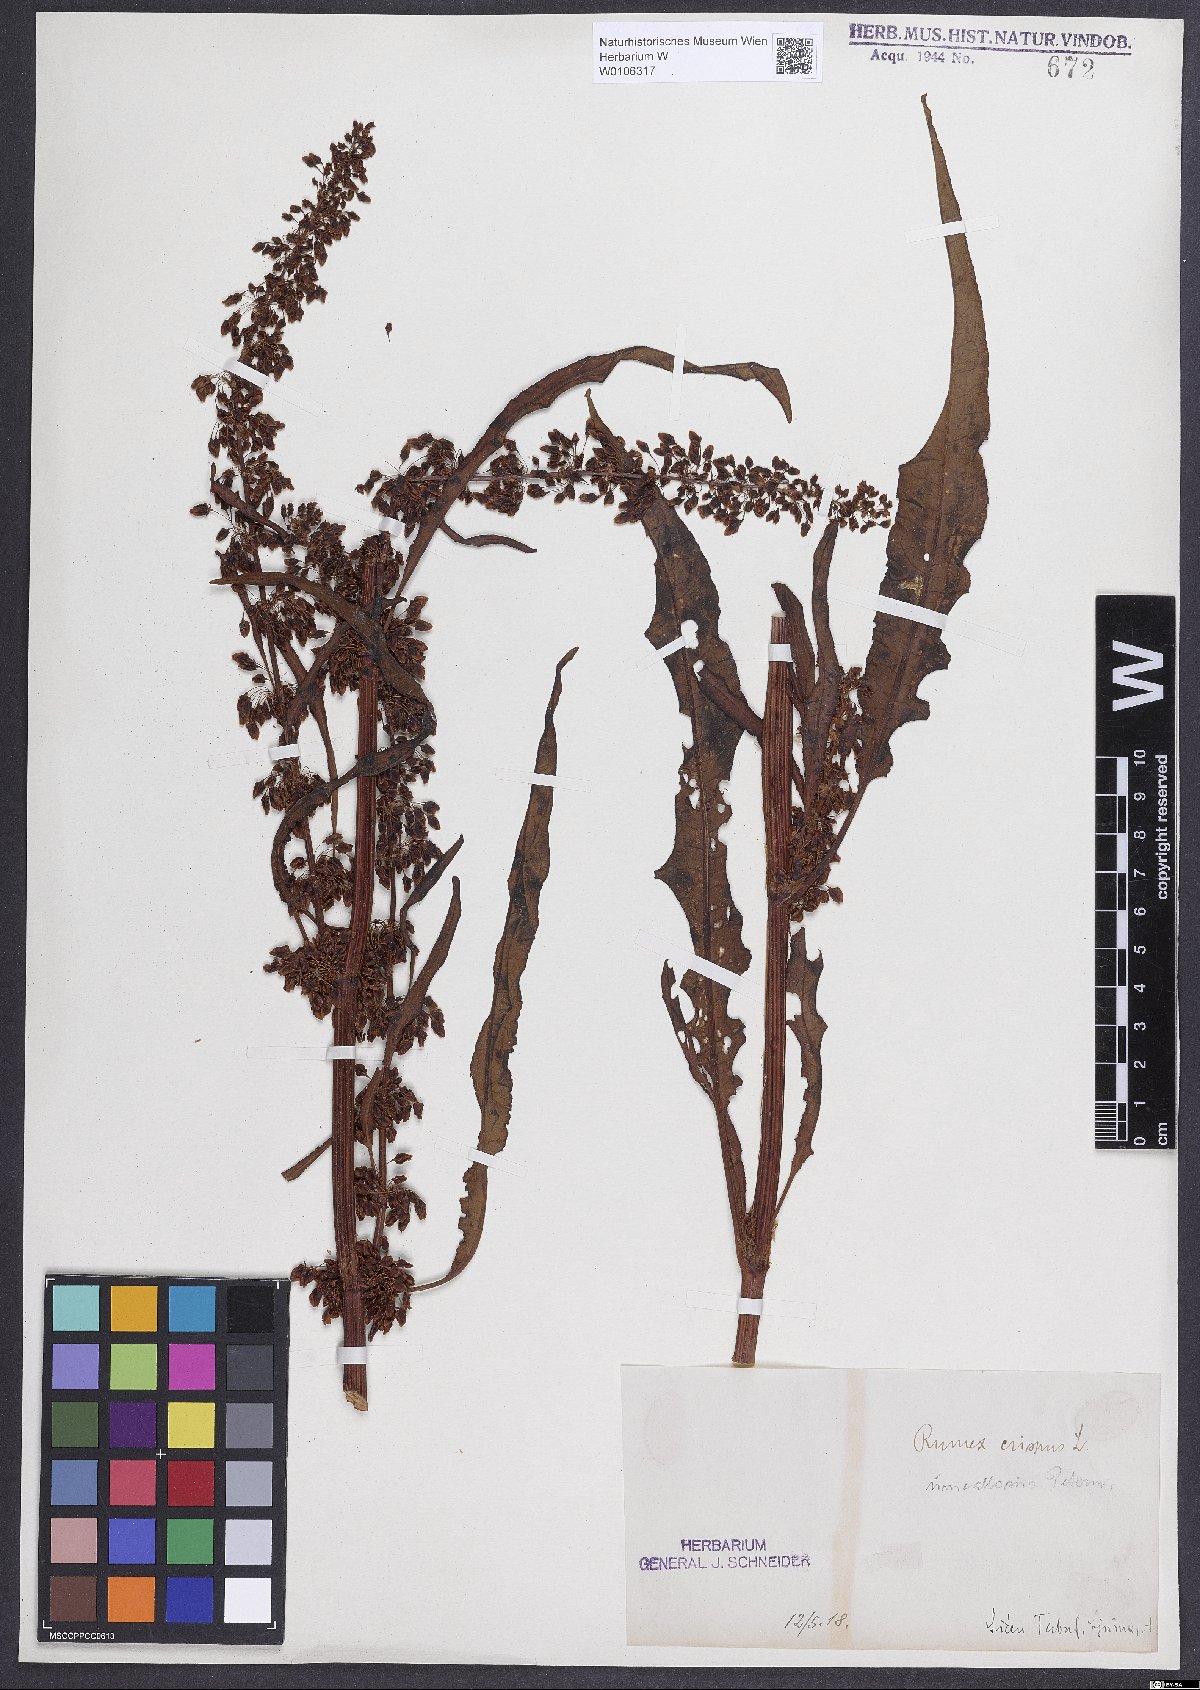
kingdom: Plantae
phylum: Tracheophyta
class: Magnoliopsida
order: Caryophyllales
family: Polygonaceae
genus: Rumex
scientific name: Rumex crispus
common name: Curled dock
